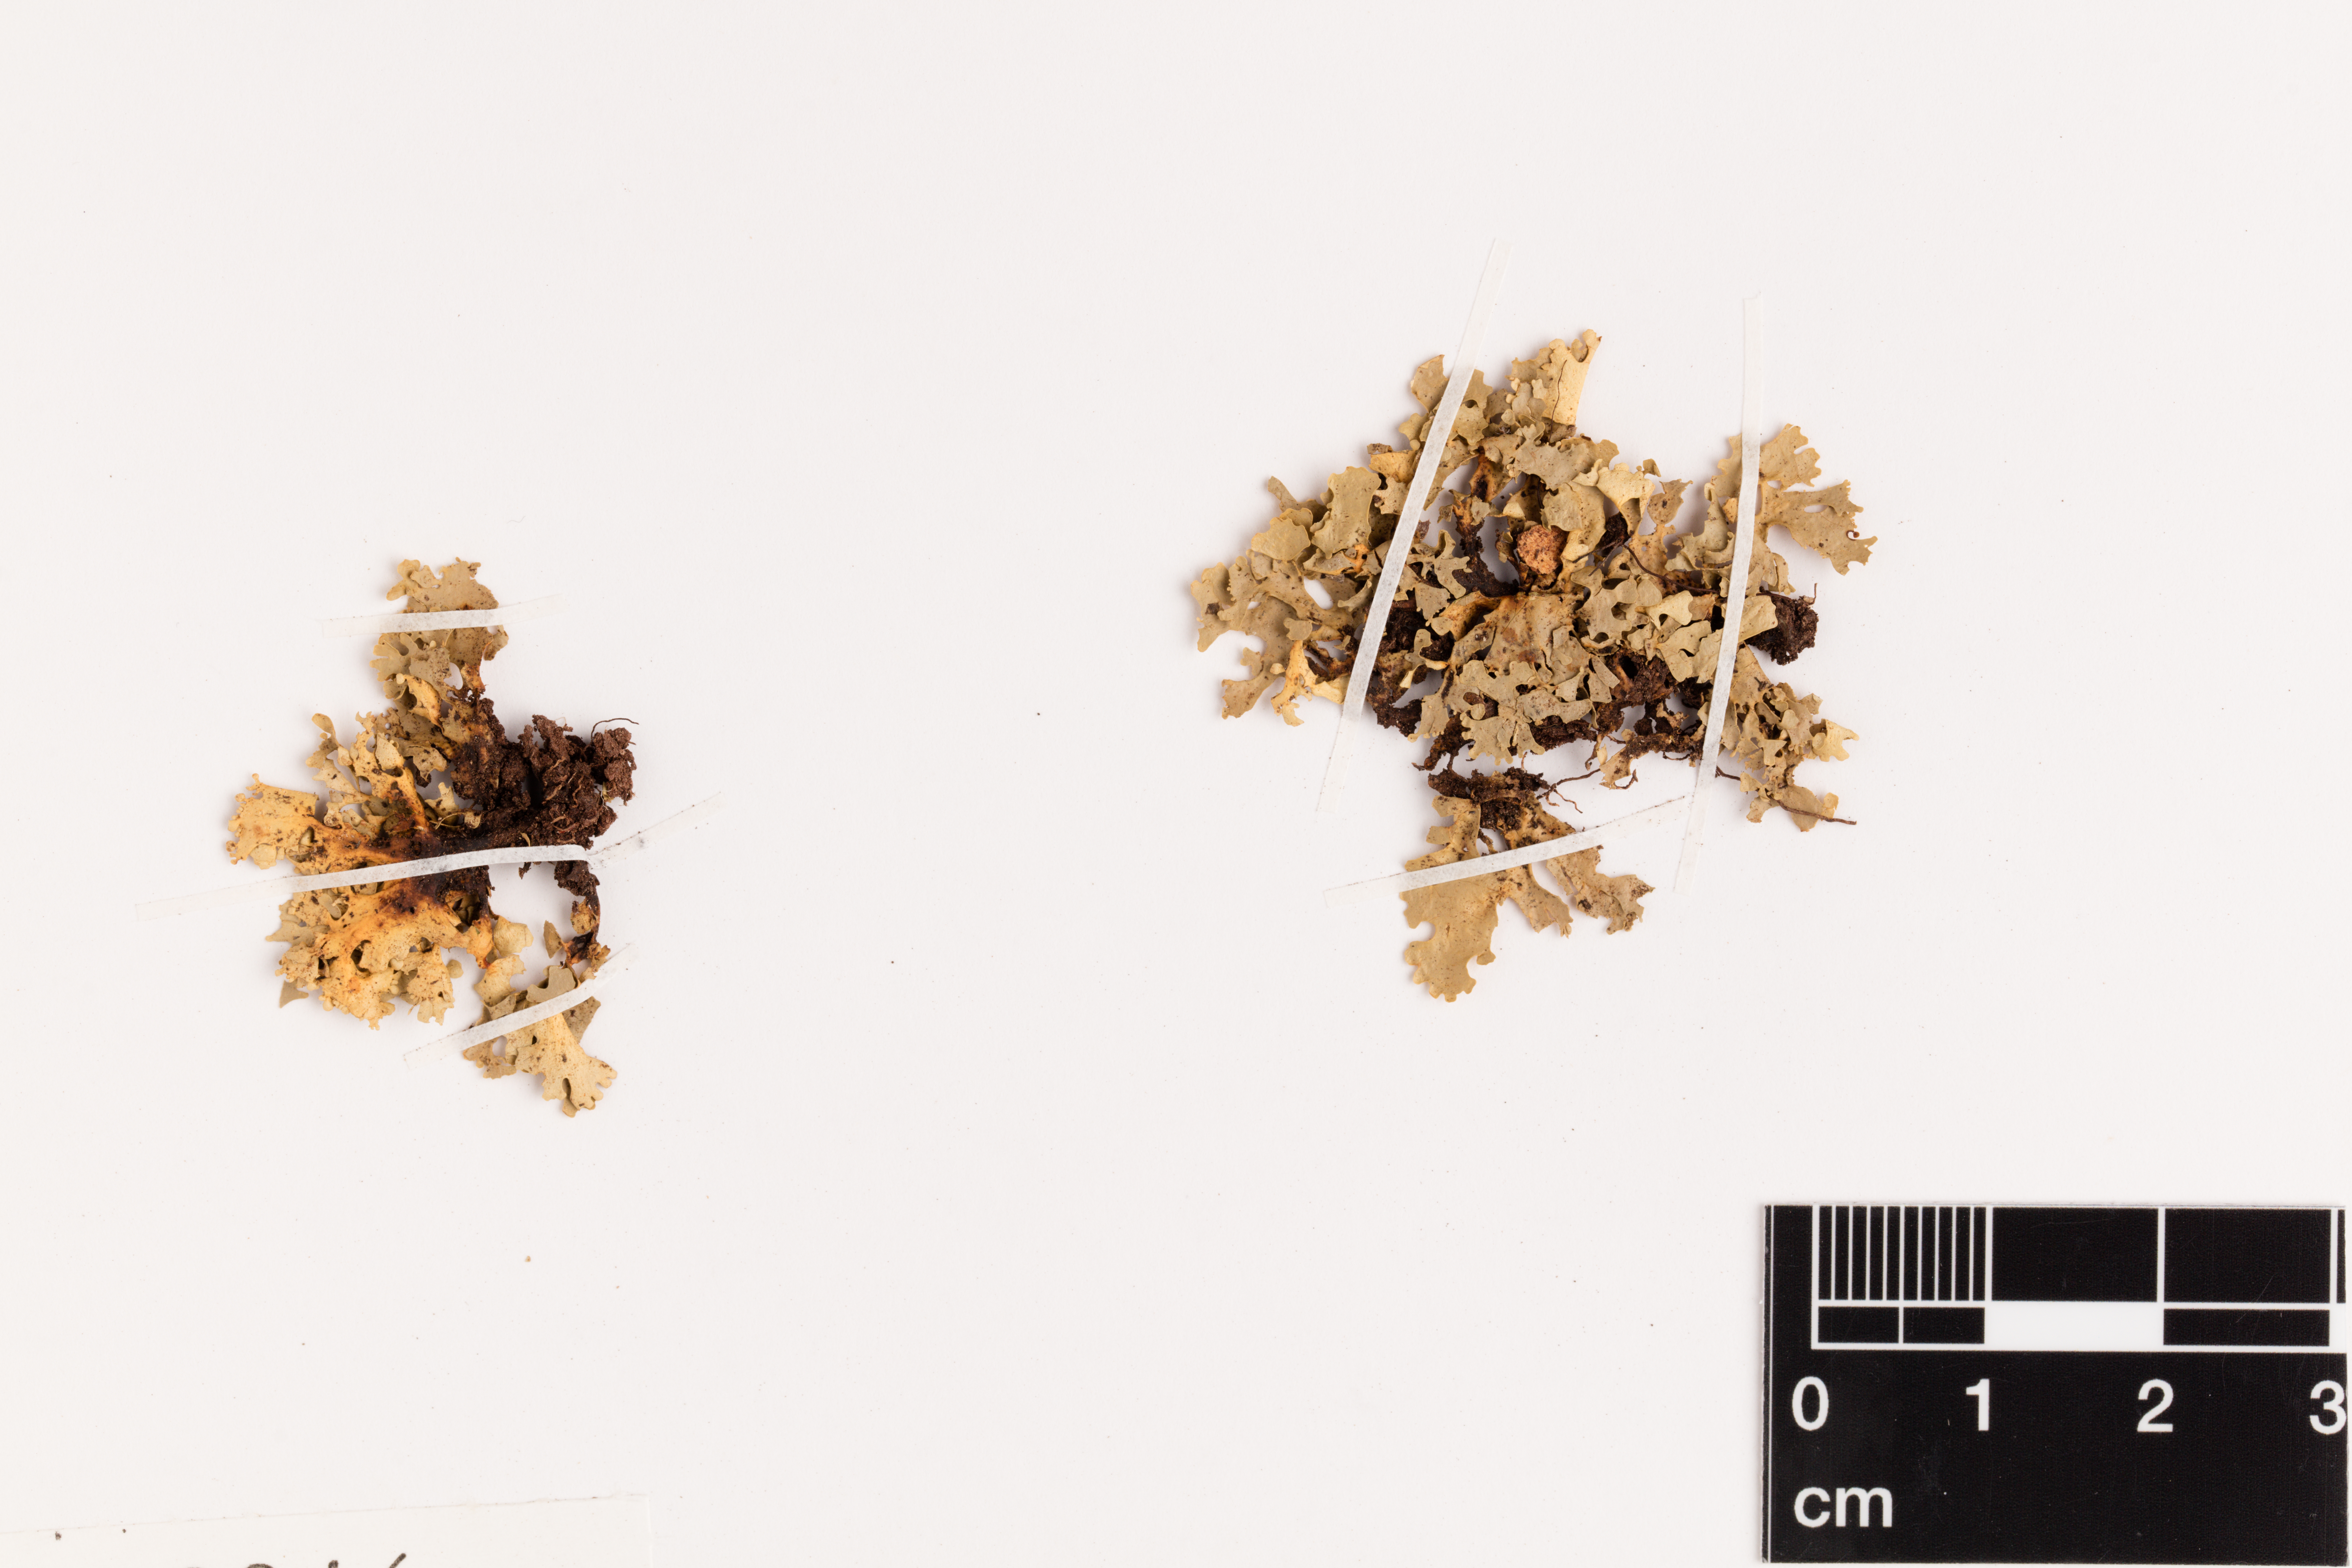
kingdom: Fungi
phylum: Ascomycota
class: Lecanoromycetes
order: Peltigerales
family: Lobariaceae
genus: Sticta
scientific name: Sticta
